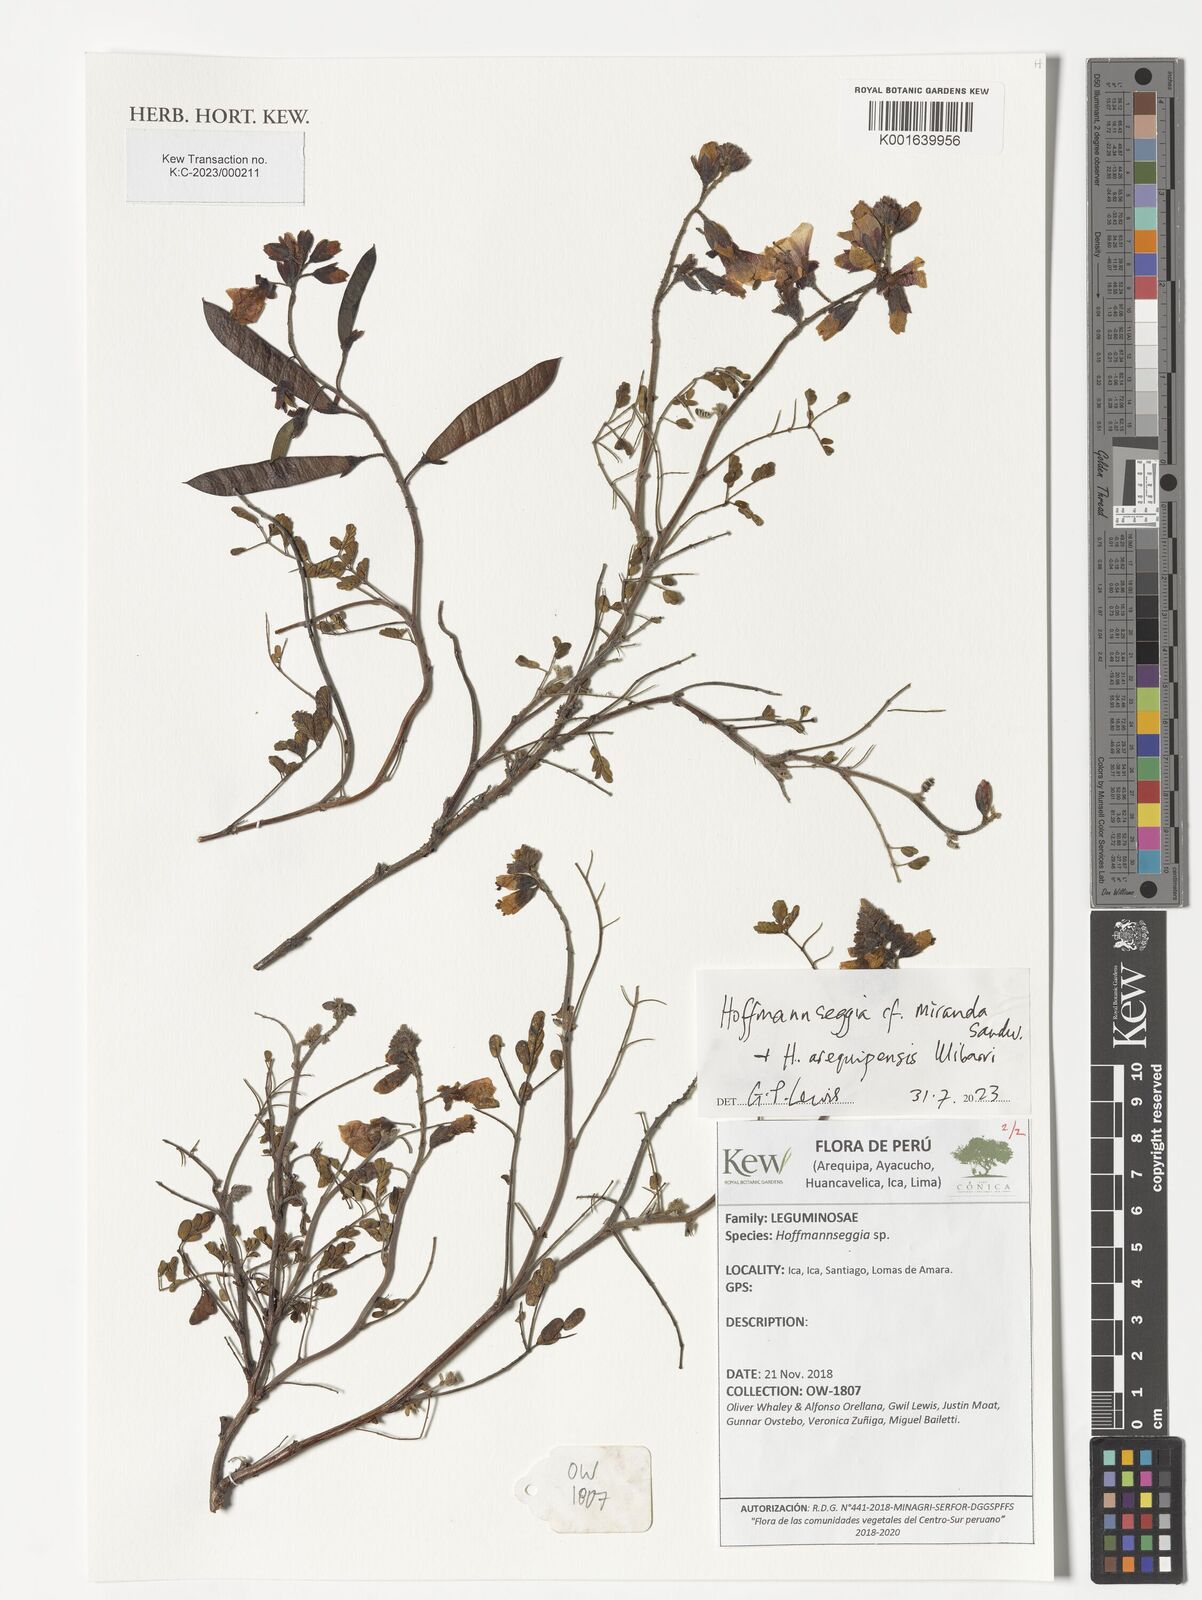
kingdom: Plantae
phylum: Tracheophyta
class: Magnoliopsida
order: Fabales
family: Fabaceae
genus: Hoffmannseggia
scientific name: Hoffmannseggia miranda
